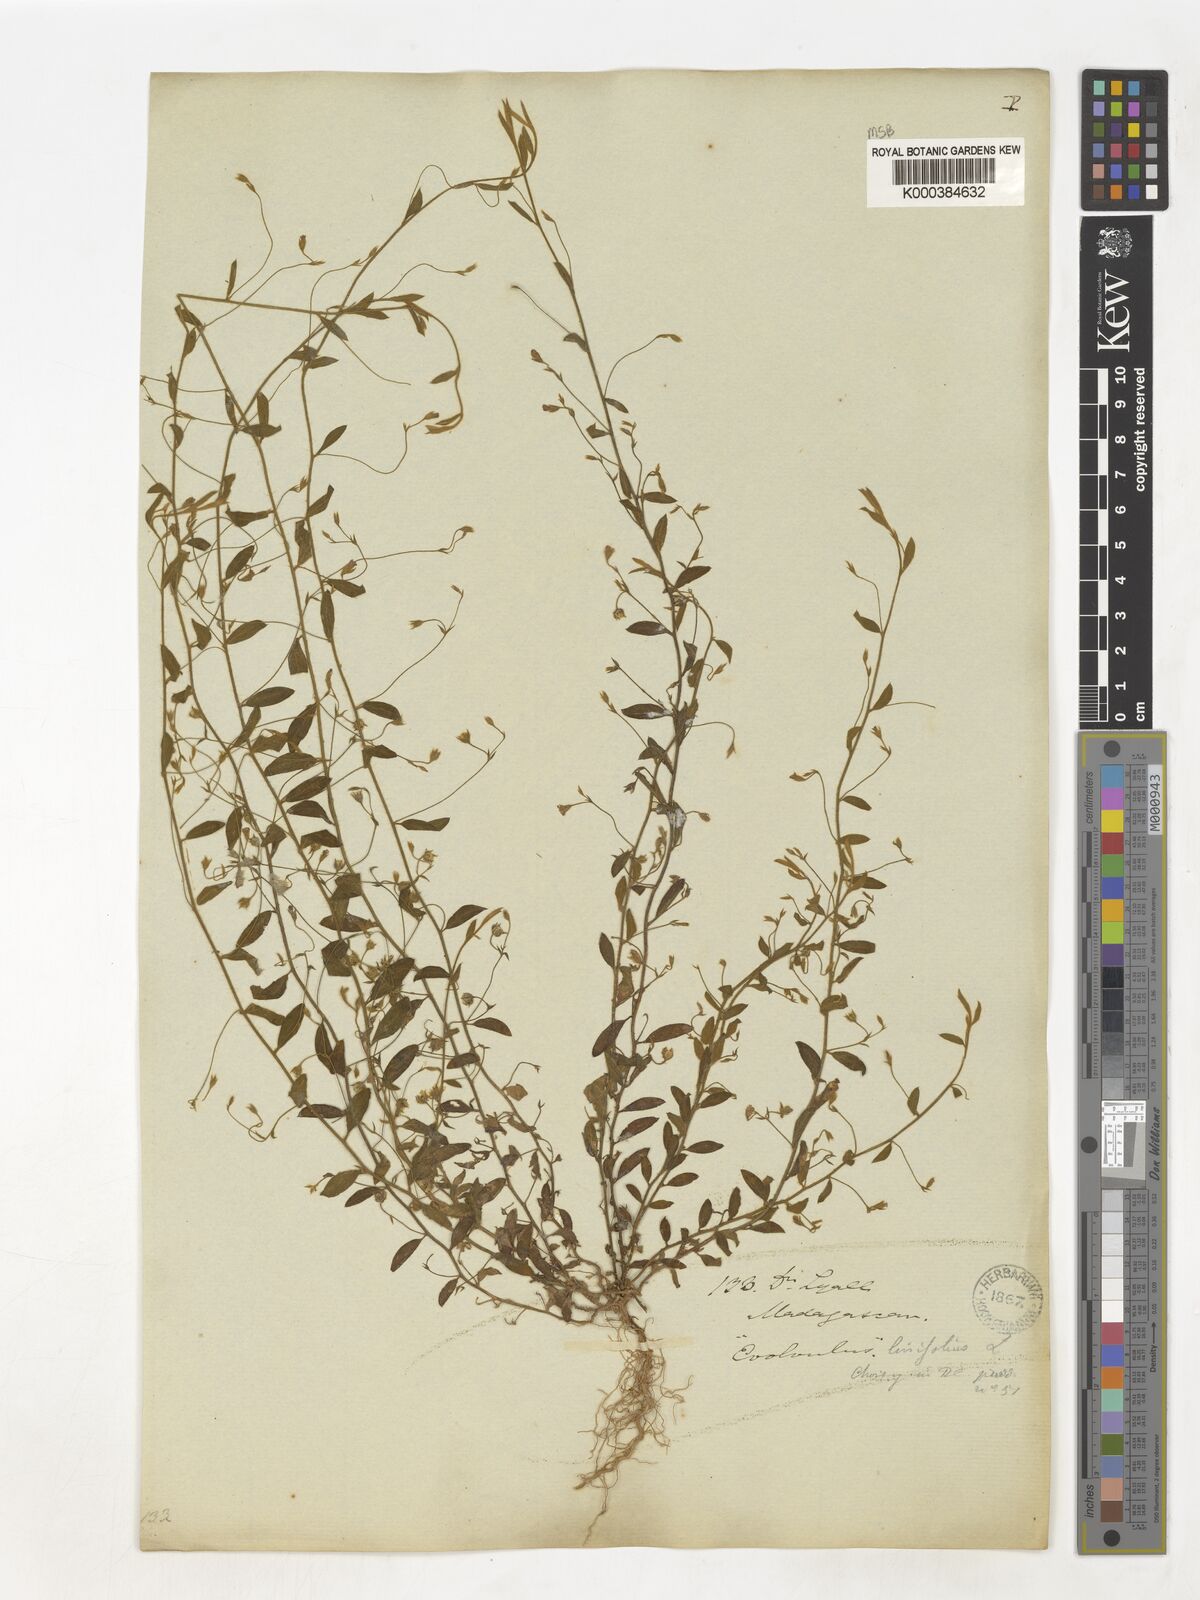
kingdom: Plantae
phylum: Tracheophyta
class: Magnoliopsida
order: Solanales
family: Convolvulaceae
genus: Evolvulus
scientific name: Evolvulus alsinoides
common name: Slender dwarf morning-glory
